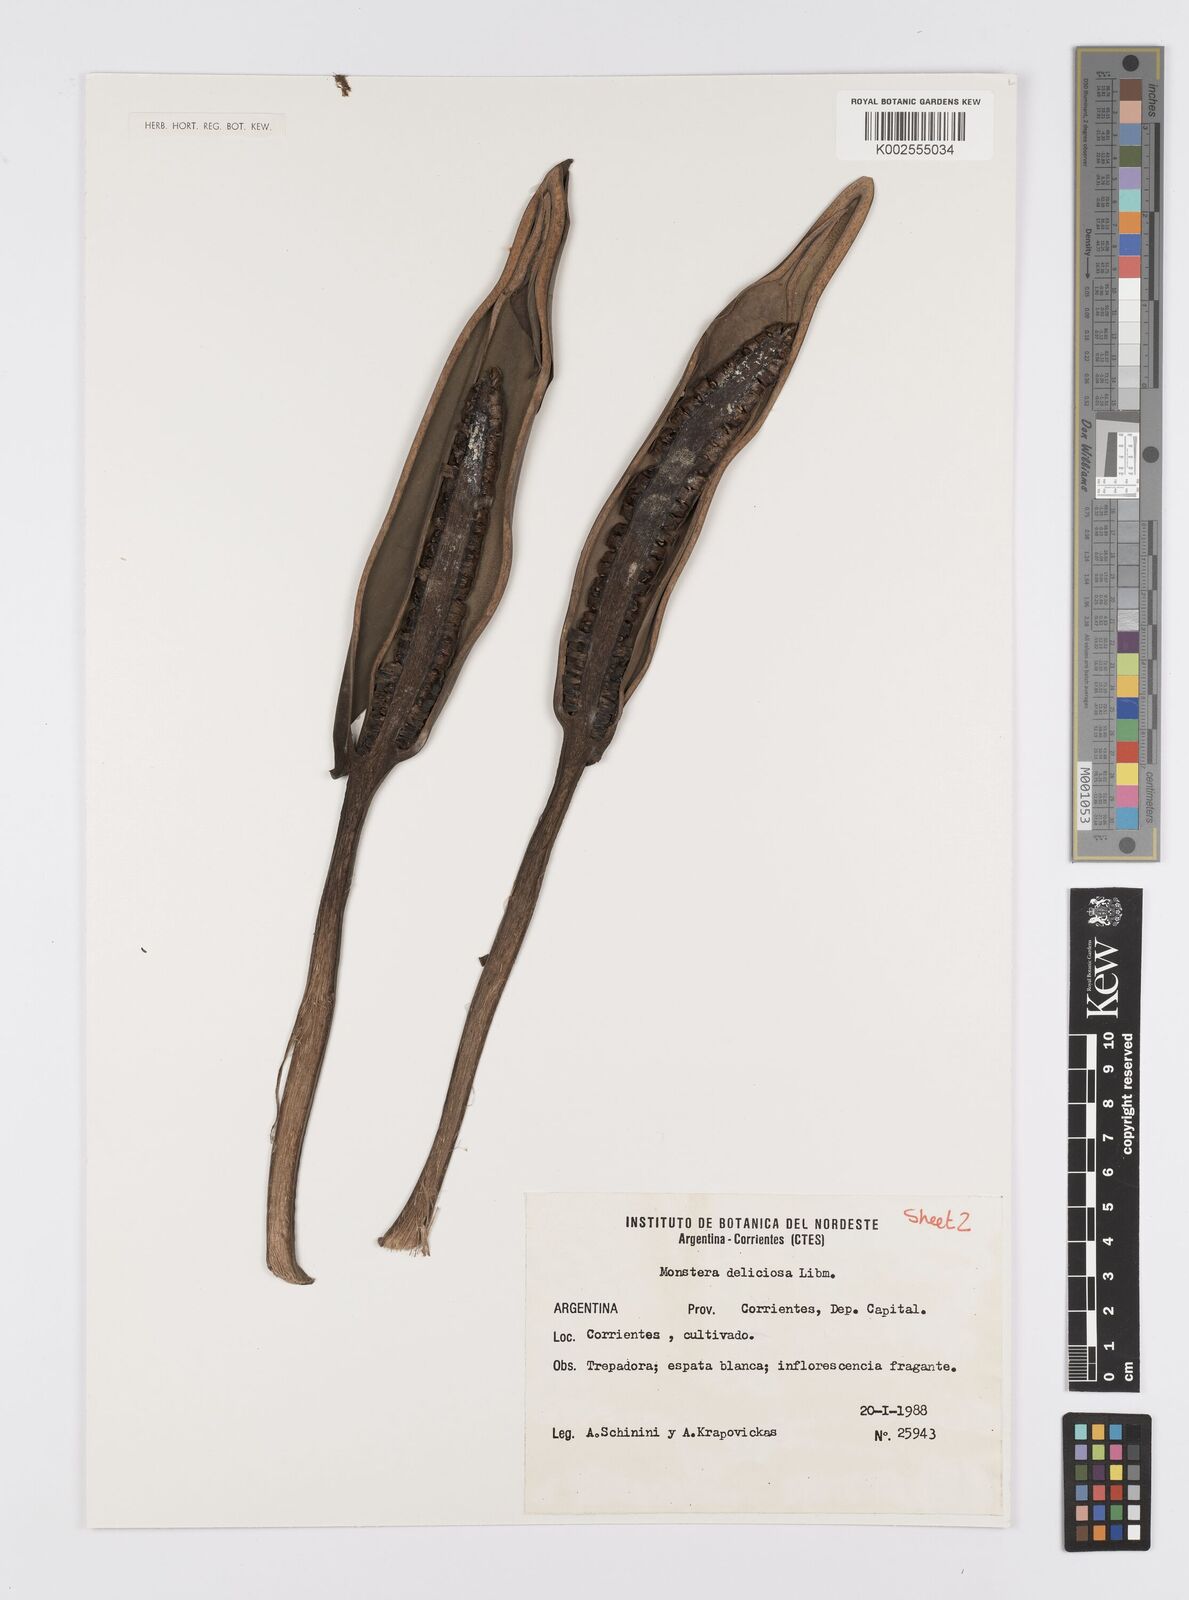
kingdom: Plantae
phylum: Tracheophyta
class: Liliopsida
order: Alismatales
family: Araceae
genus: Monstera
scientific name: Monstera deliciosa
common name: Cut-leaf-philodendron
